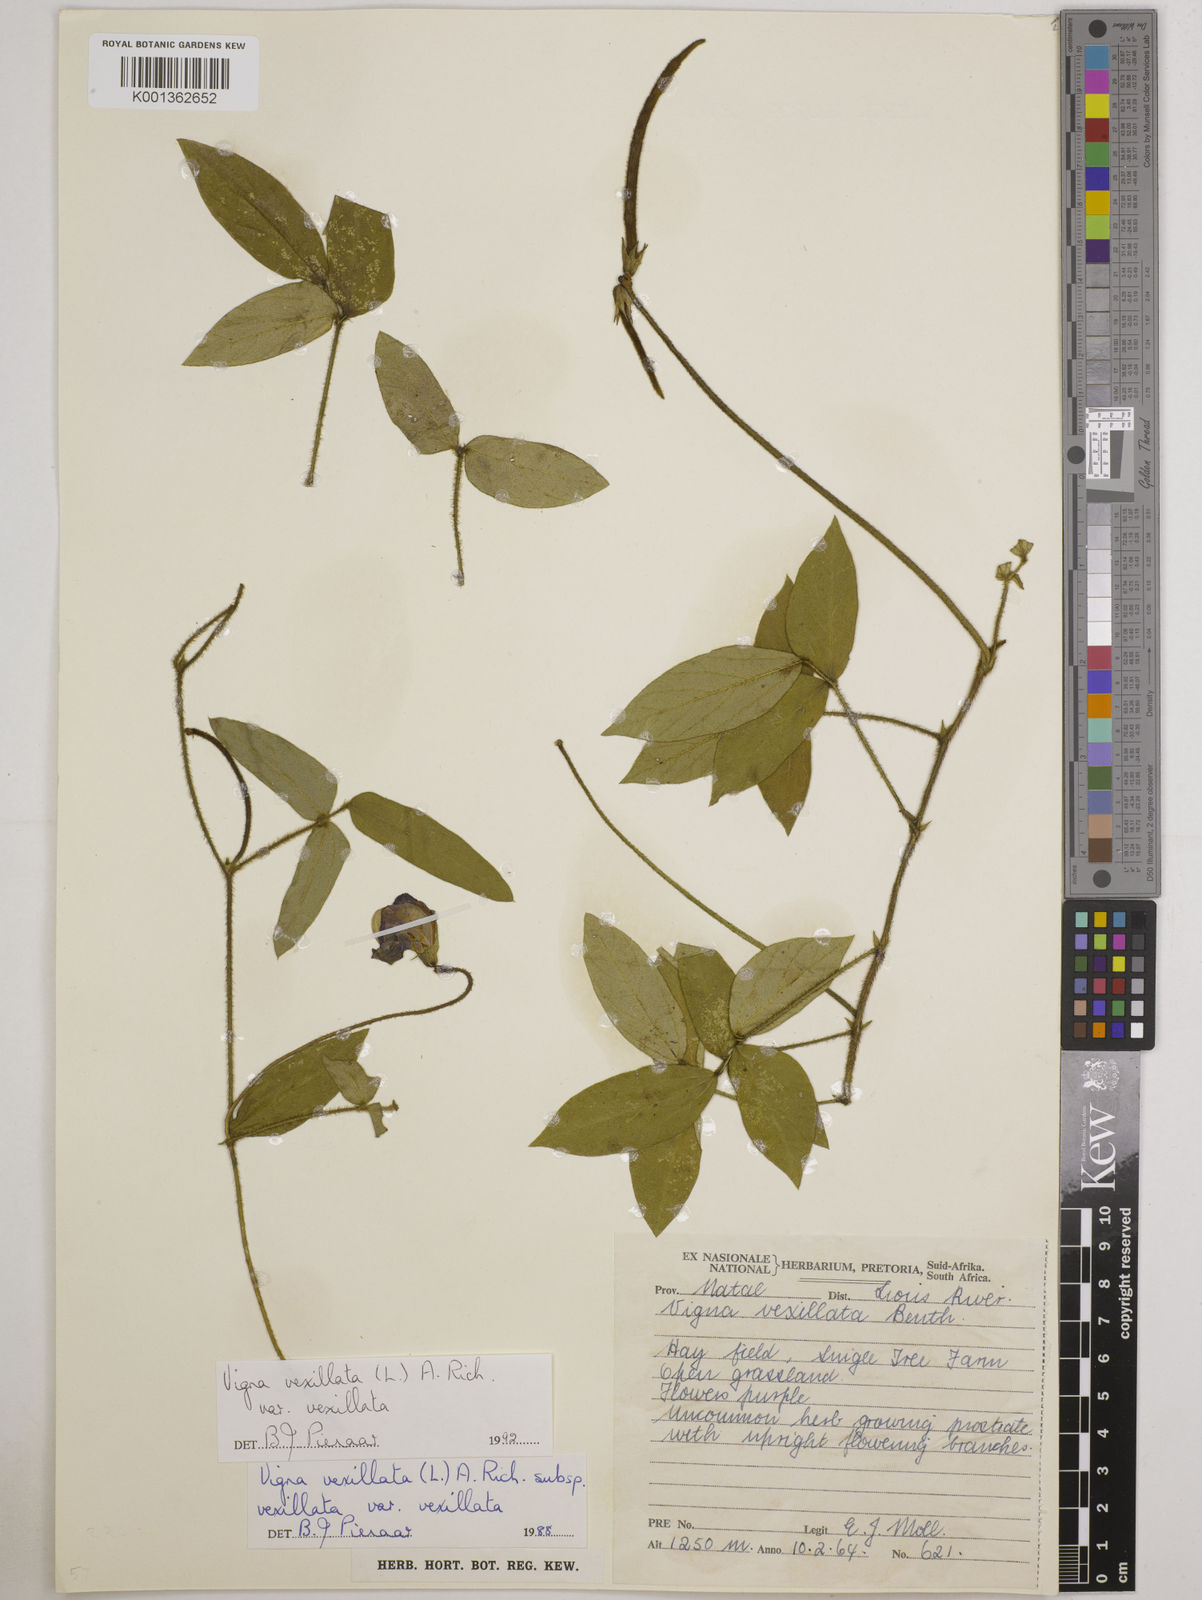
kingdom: Plantae
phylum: Tracheophyta
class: Magnoliopsida
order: Fabales
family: Fabaceae
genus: Vigna
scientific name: Vigna vexillata
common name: Zombi pea
